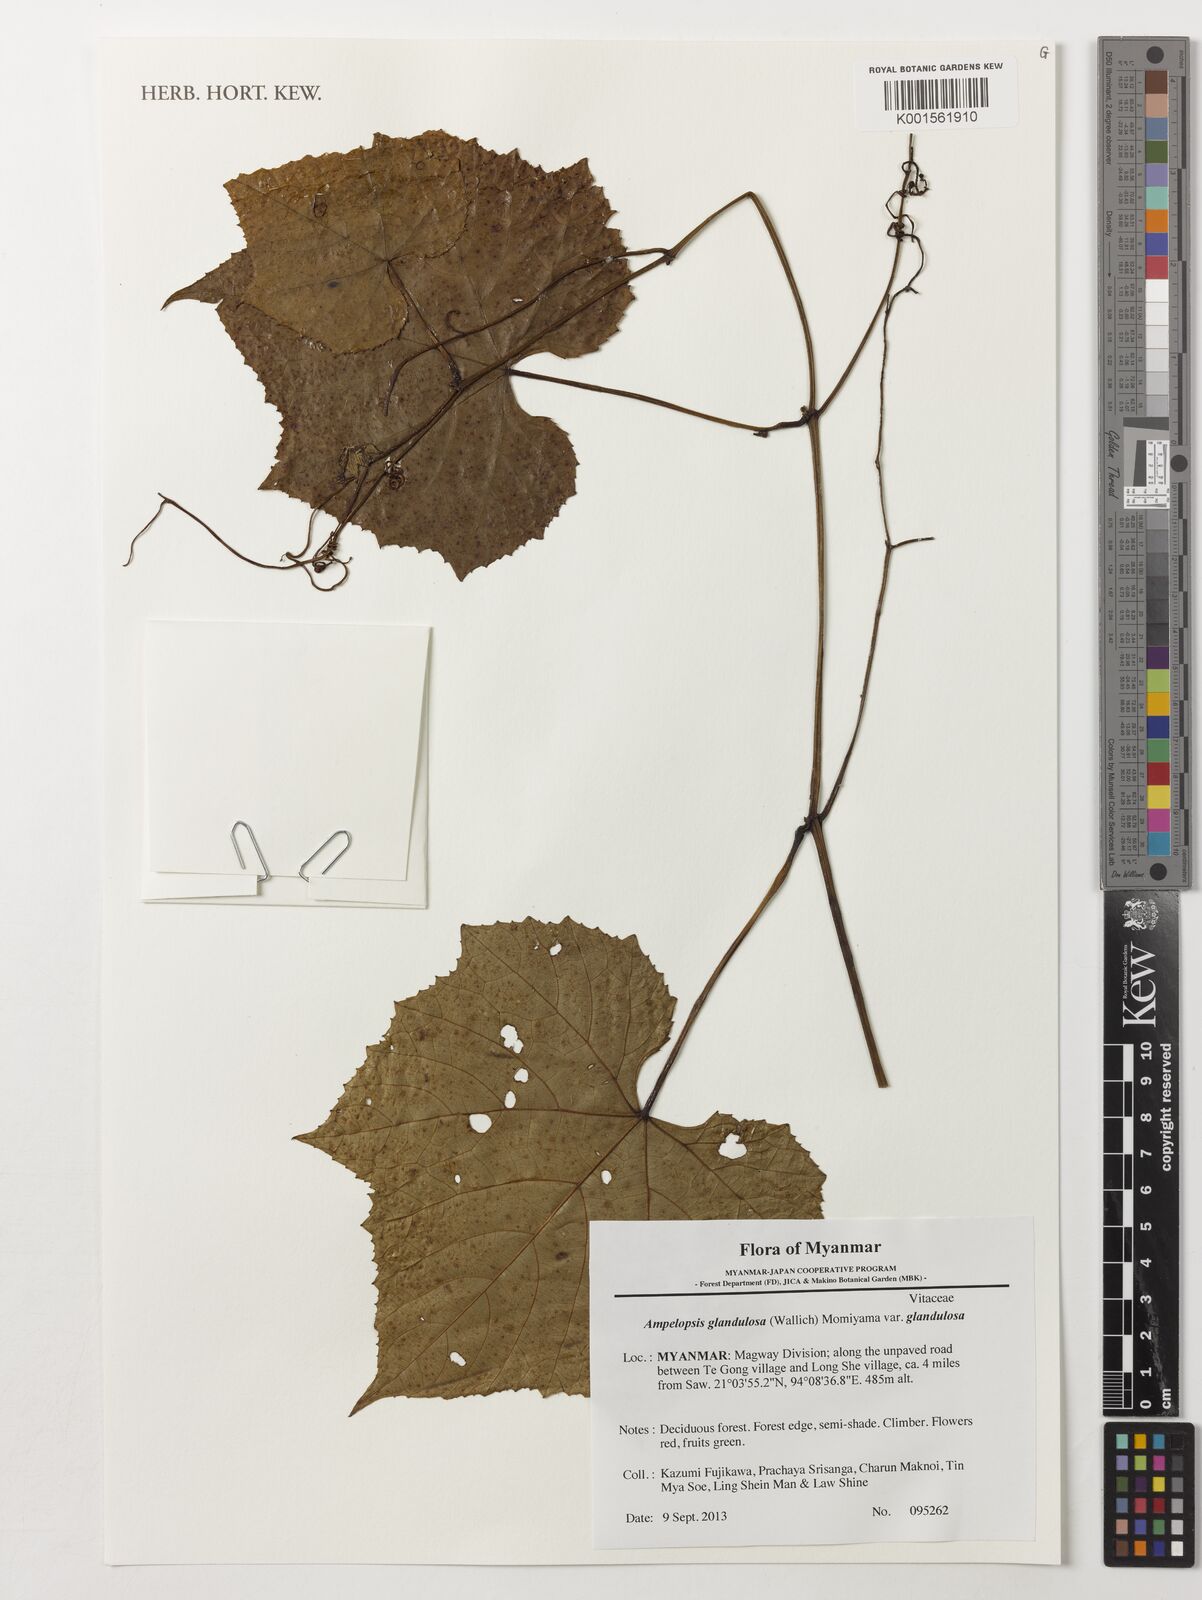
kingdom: Plantae
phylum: Tracheophyta
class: Magnoliopsida
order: Vitales
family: Vitaceae
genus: Ampelopsis
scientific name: Ampelopsis glandulosa
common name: Amur peppervine
